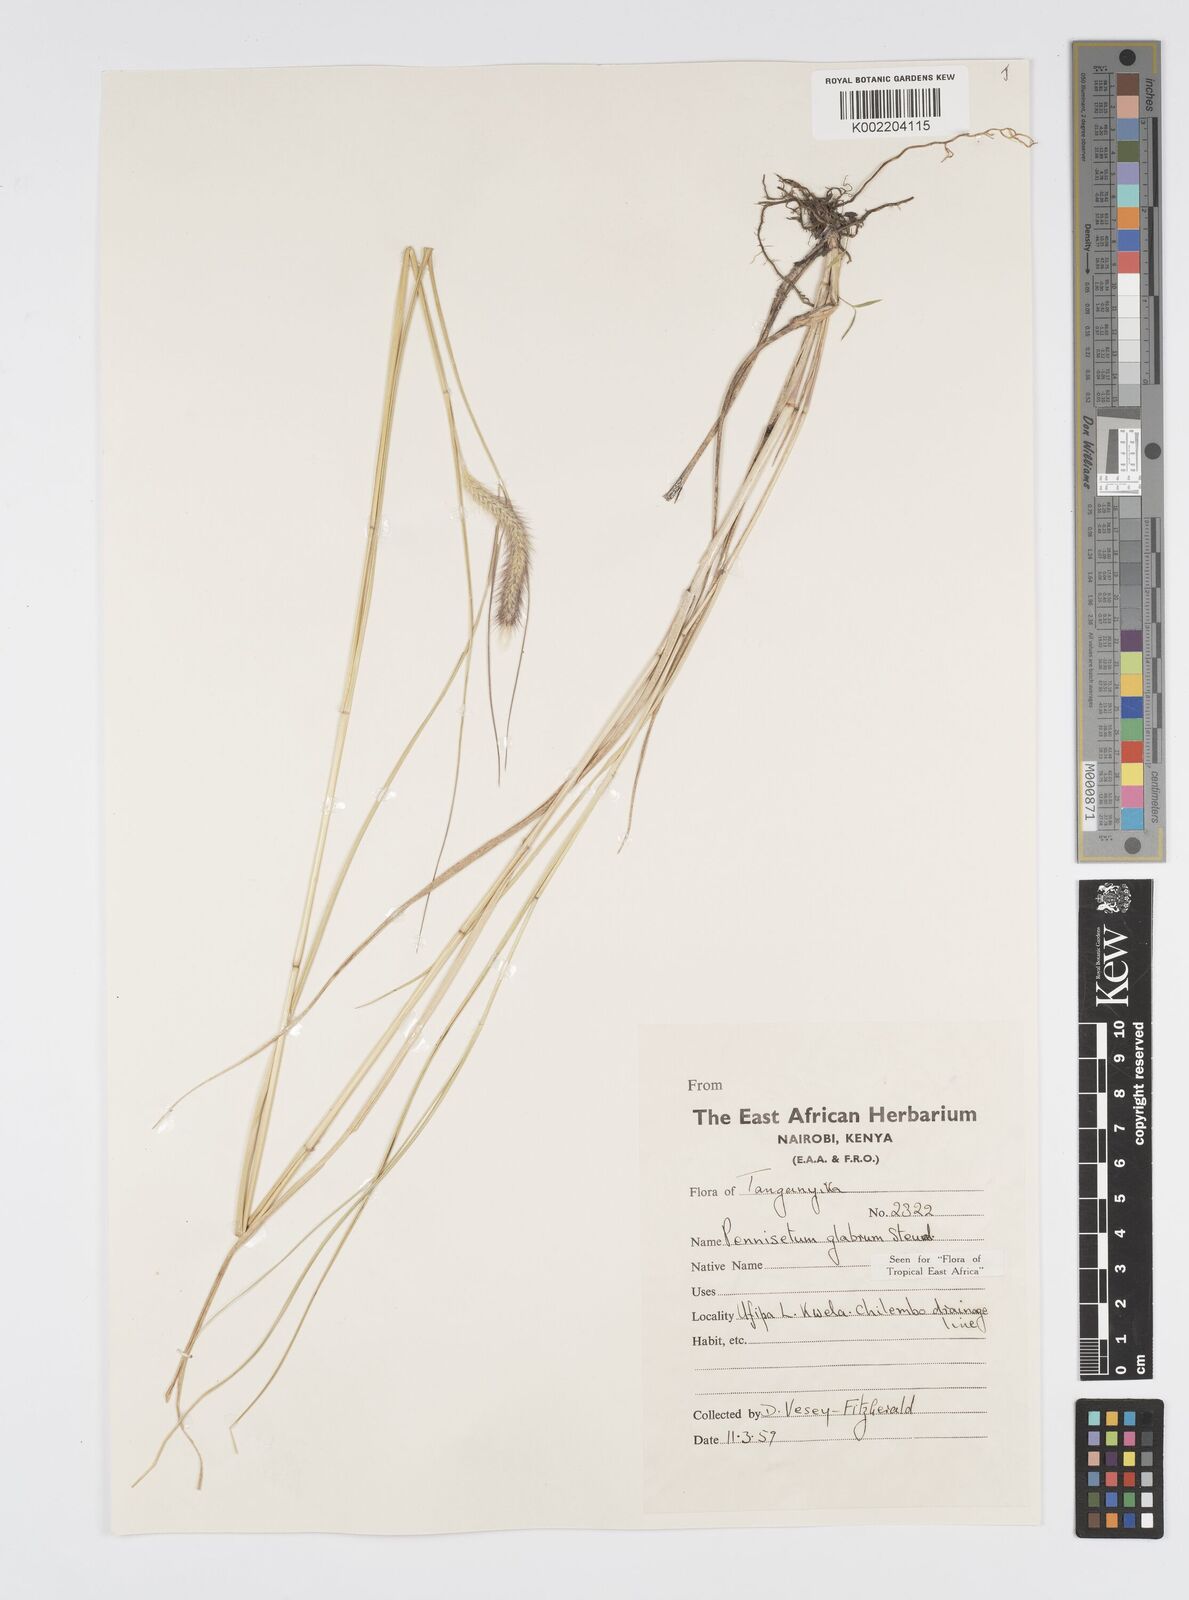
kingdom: Plantae
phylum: Tracheophyta
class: Liliopsida
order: Poales
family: Poaceae
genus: Cenchrus
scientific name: Cenchrus geniculatus
